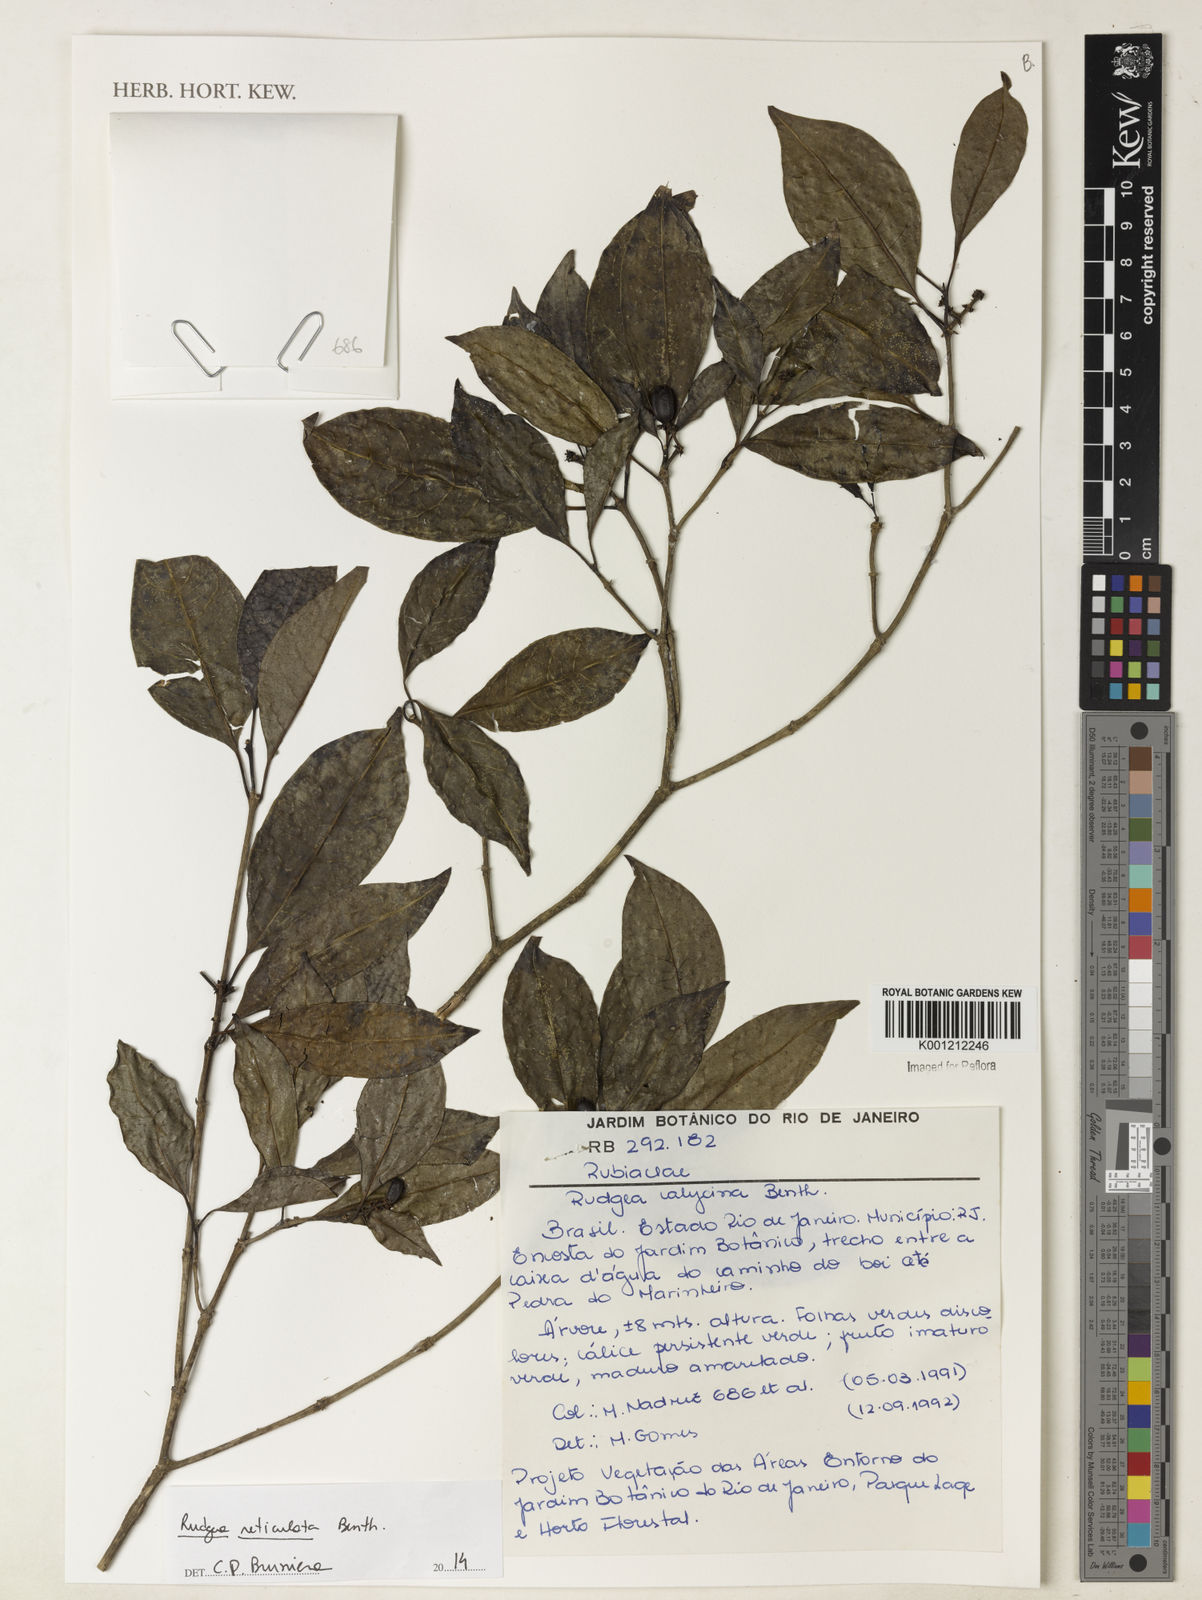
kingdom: Plantae
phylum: Tracheophyta
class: Magnoliopsida
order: Gentianales
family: Rubiaceae
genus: Rudgea
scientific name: Rudgea reticulata
